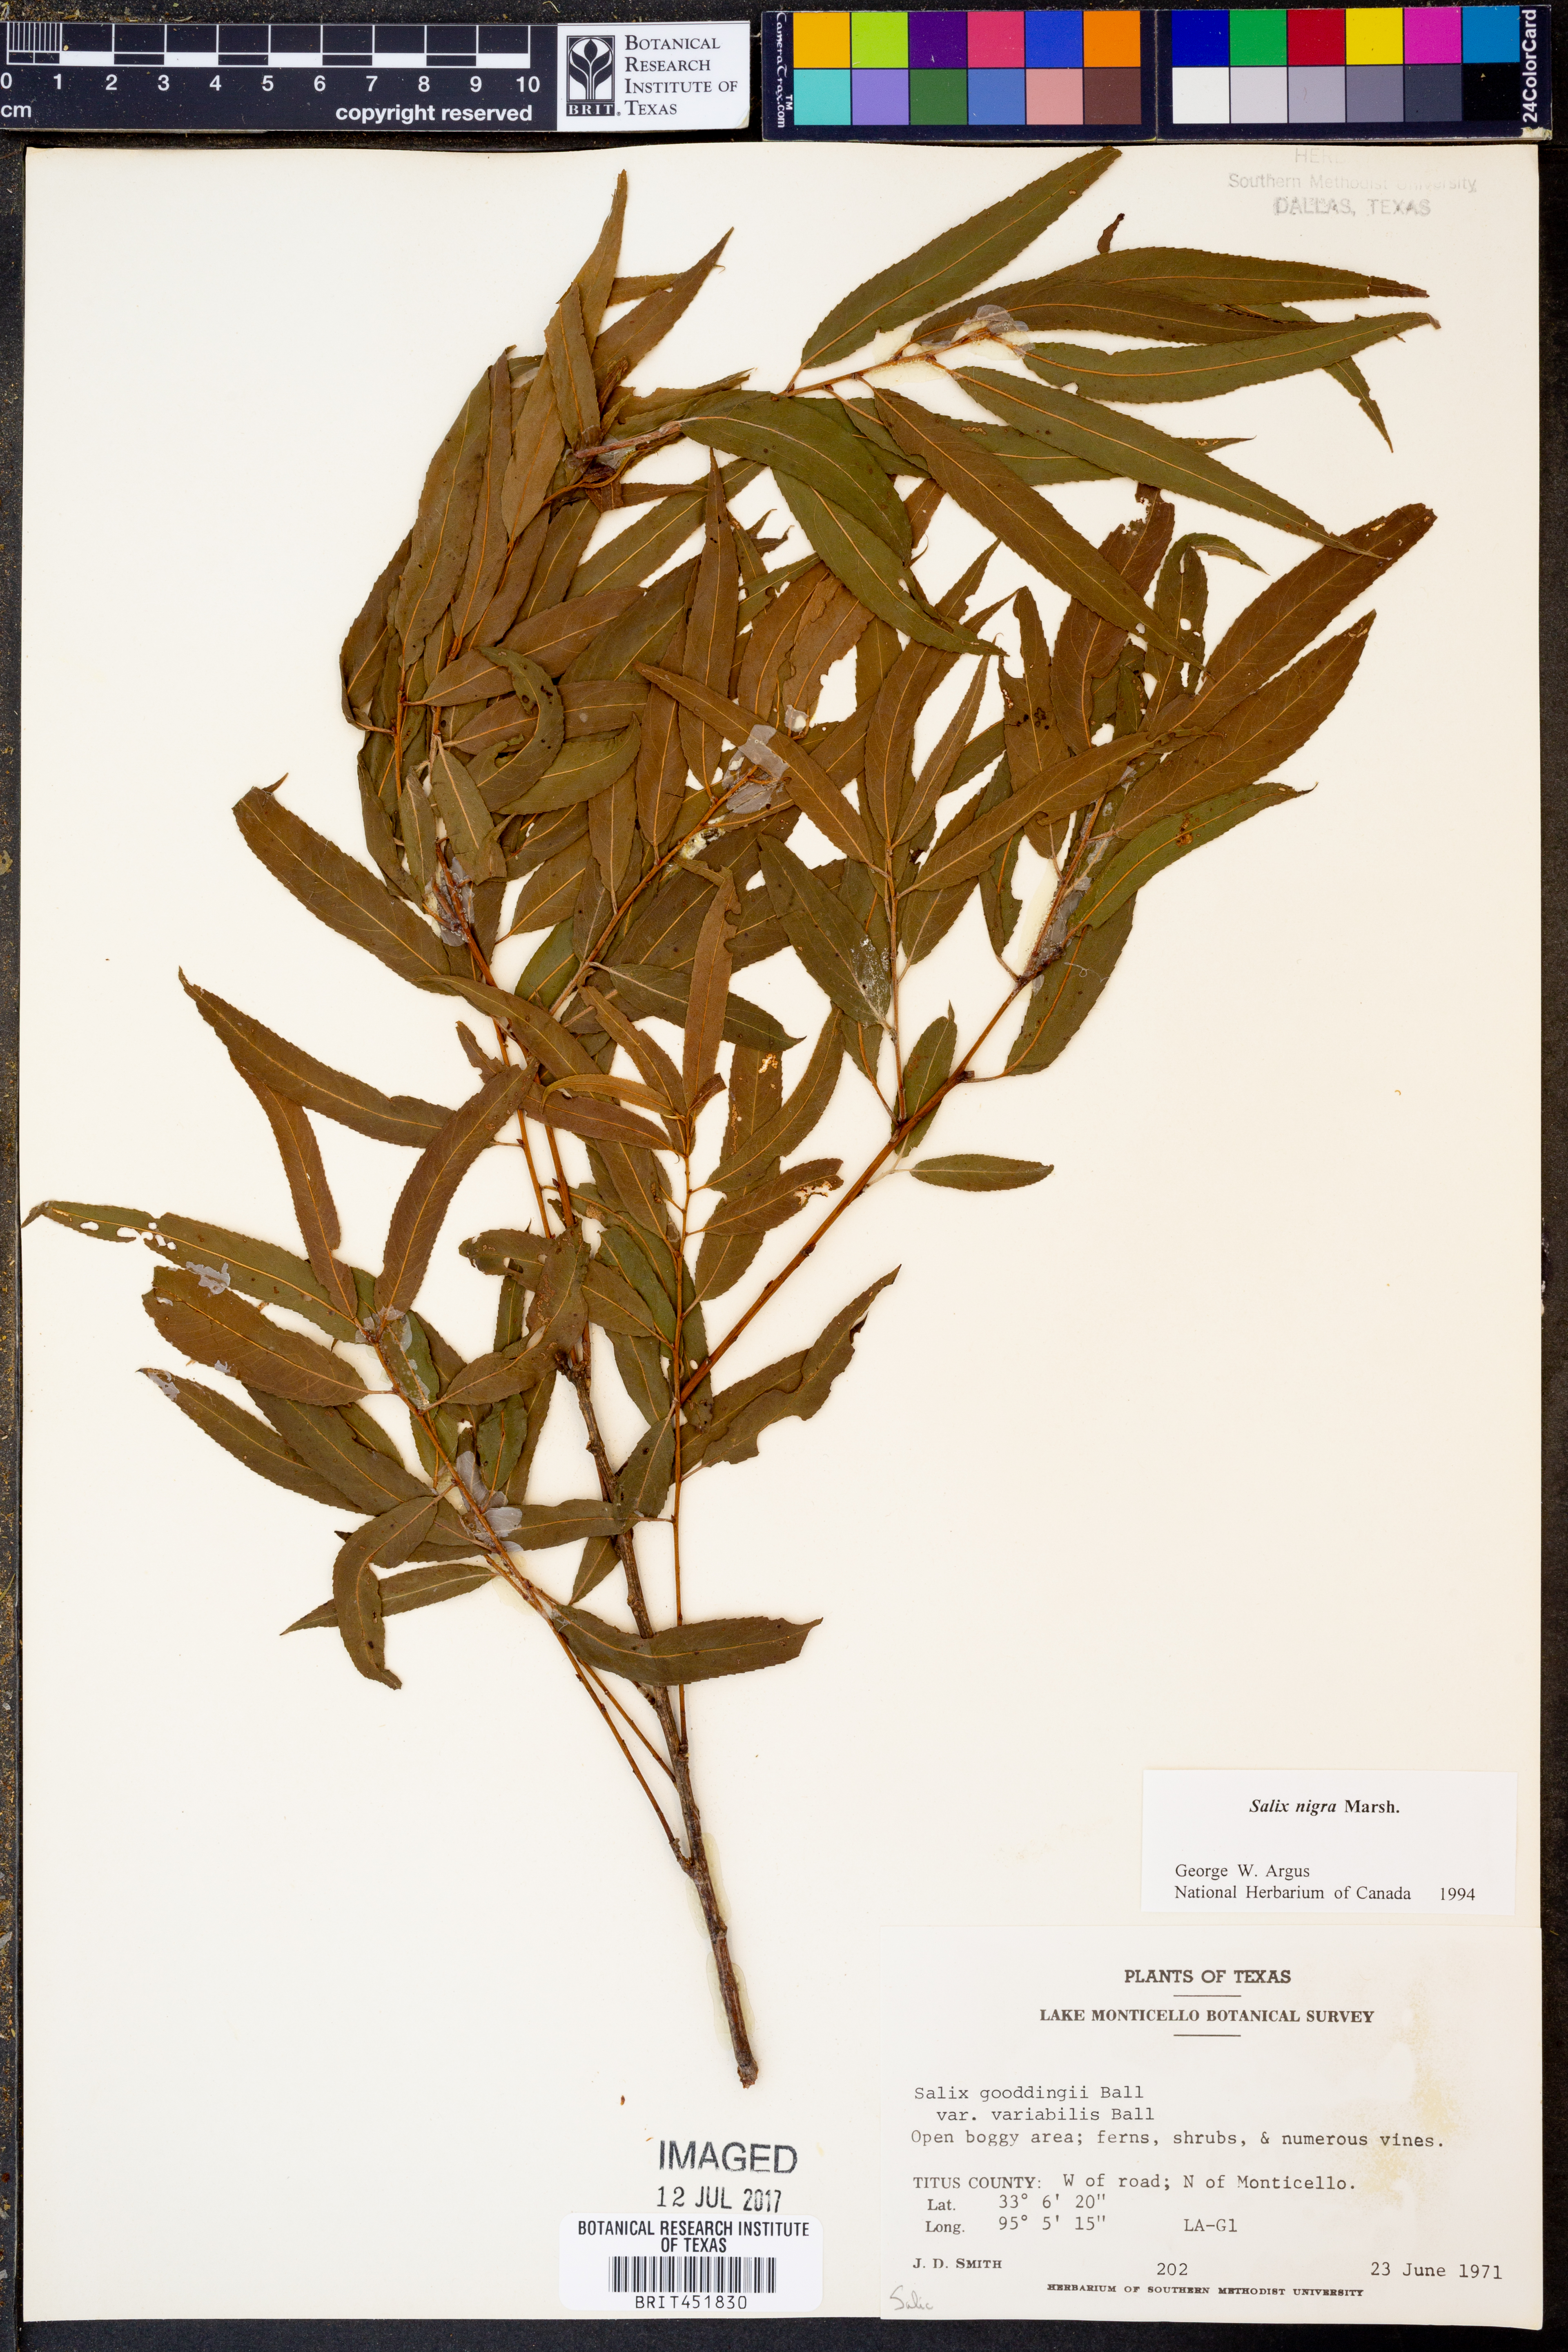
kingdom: Plantae
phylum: Tracheophyta
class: Magnoliopsida
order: Malpighiales
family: Salicaceae
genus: Salix
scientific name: Salix nigra
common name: Black willow
